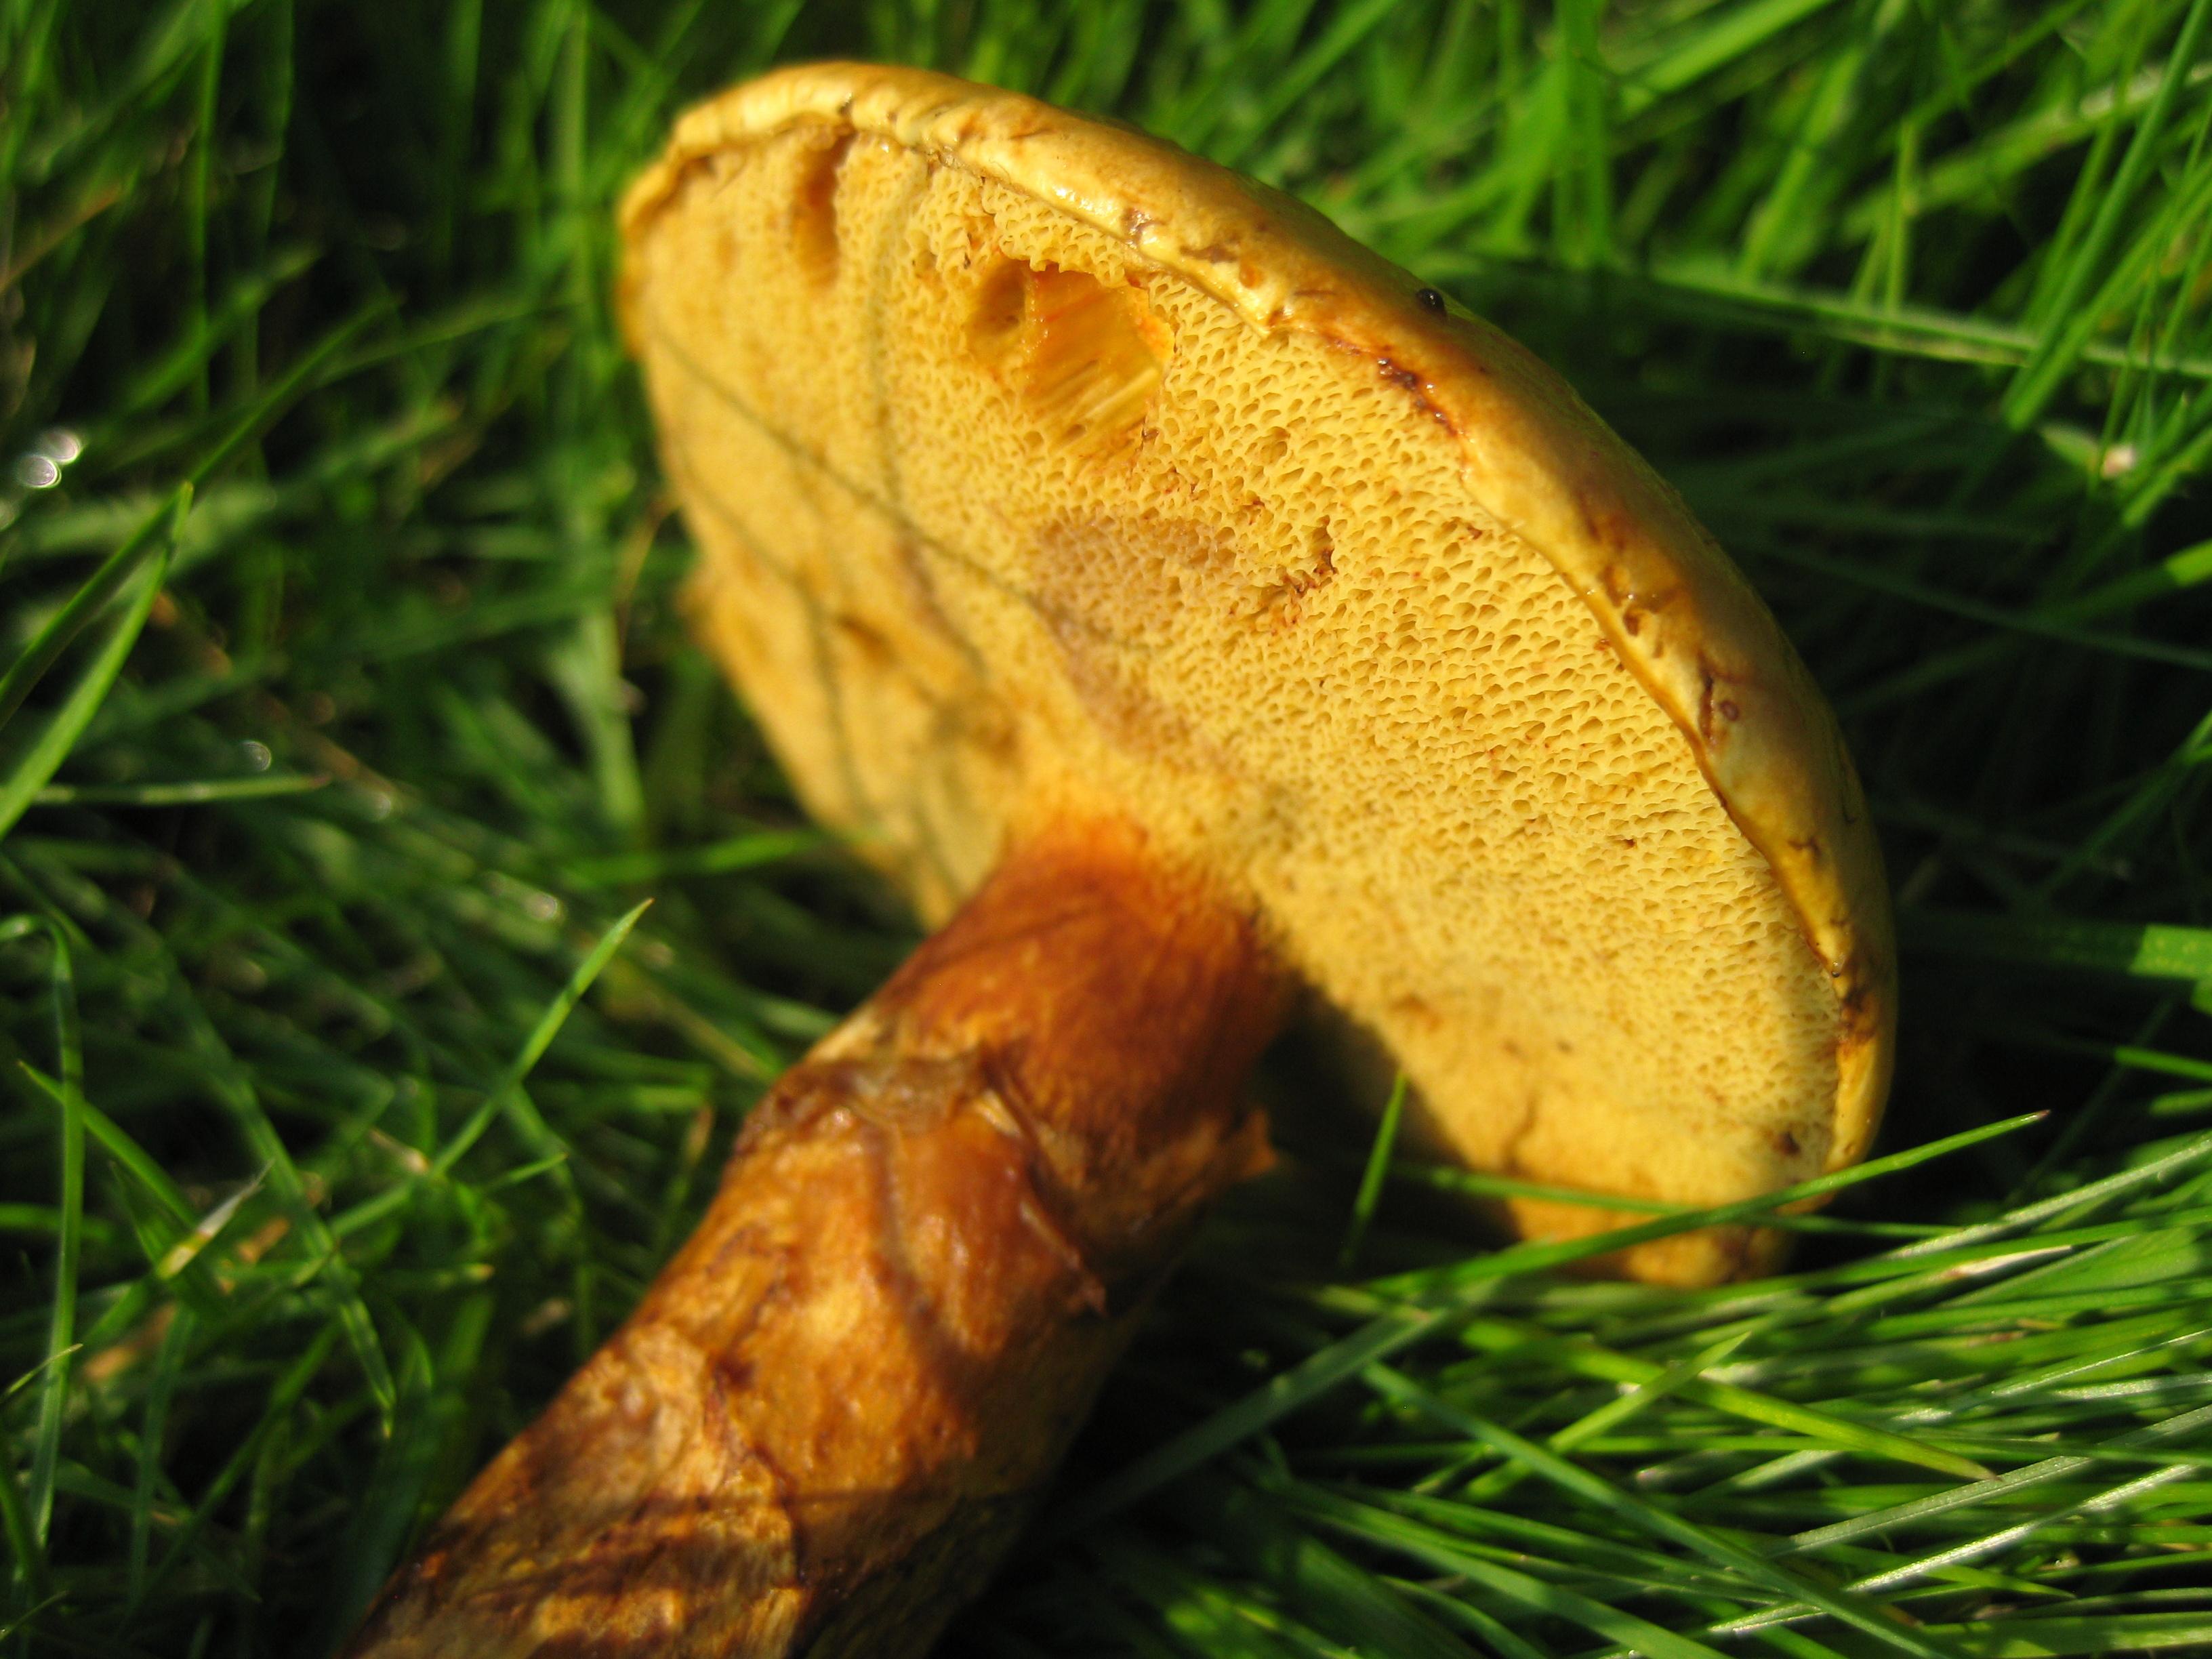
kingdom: Fungi
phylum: Basidiomycota
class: Agaricomycetes
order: Boletales
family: Suillaceae
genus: Suillus
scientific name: Suillus grevillei
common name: lærke-slimrørhat
